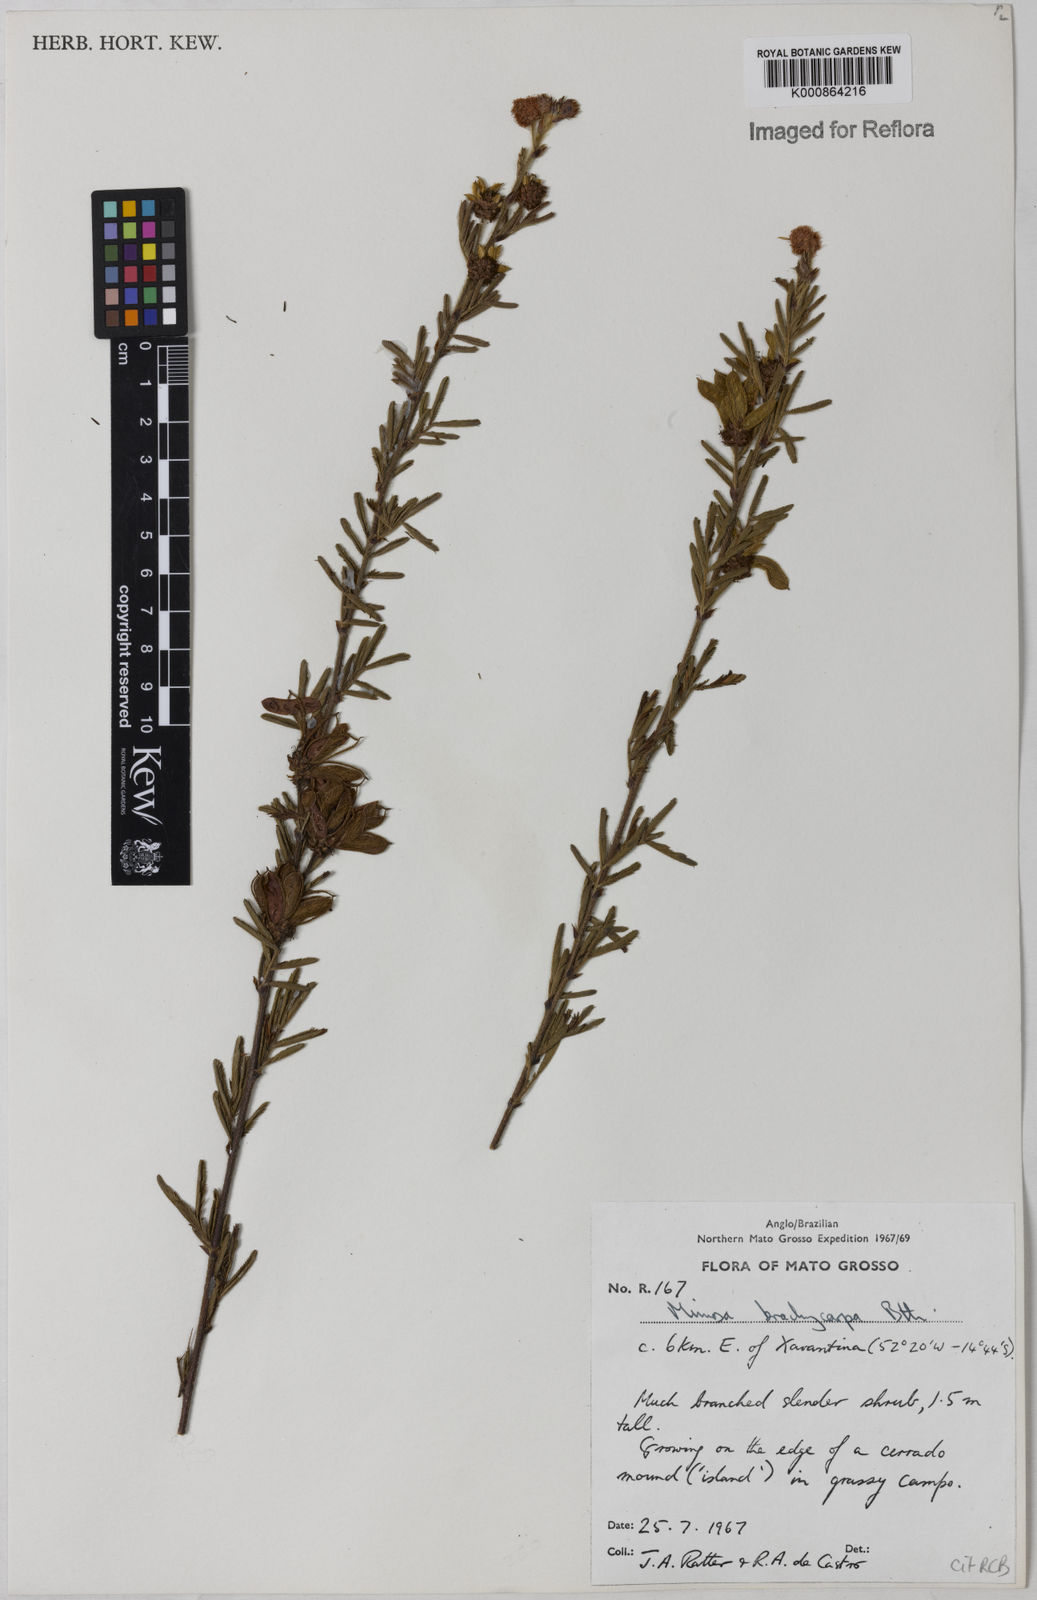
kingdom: Plantae
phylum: Tracheophyta
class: Magnoliopsida
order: Fabales
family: Fabaceae
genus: Mimosa
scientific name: Mimosa brachycarpa
